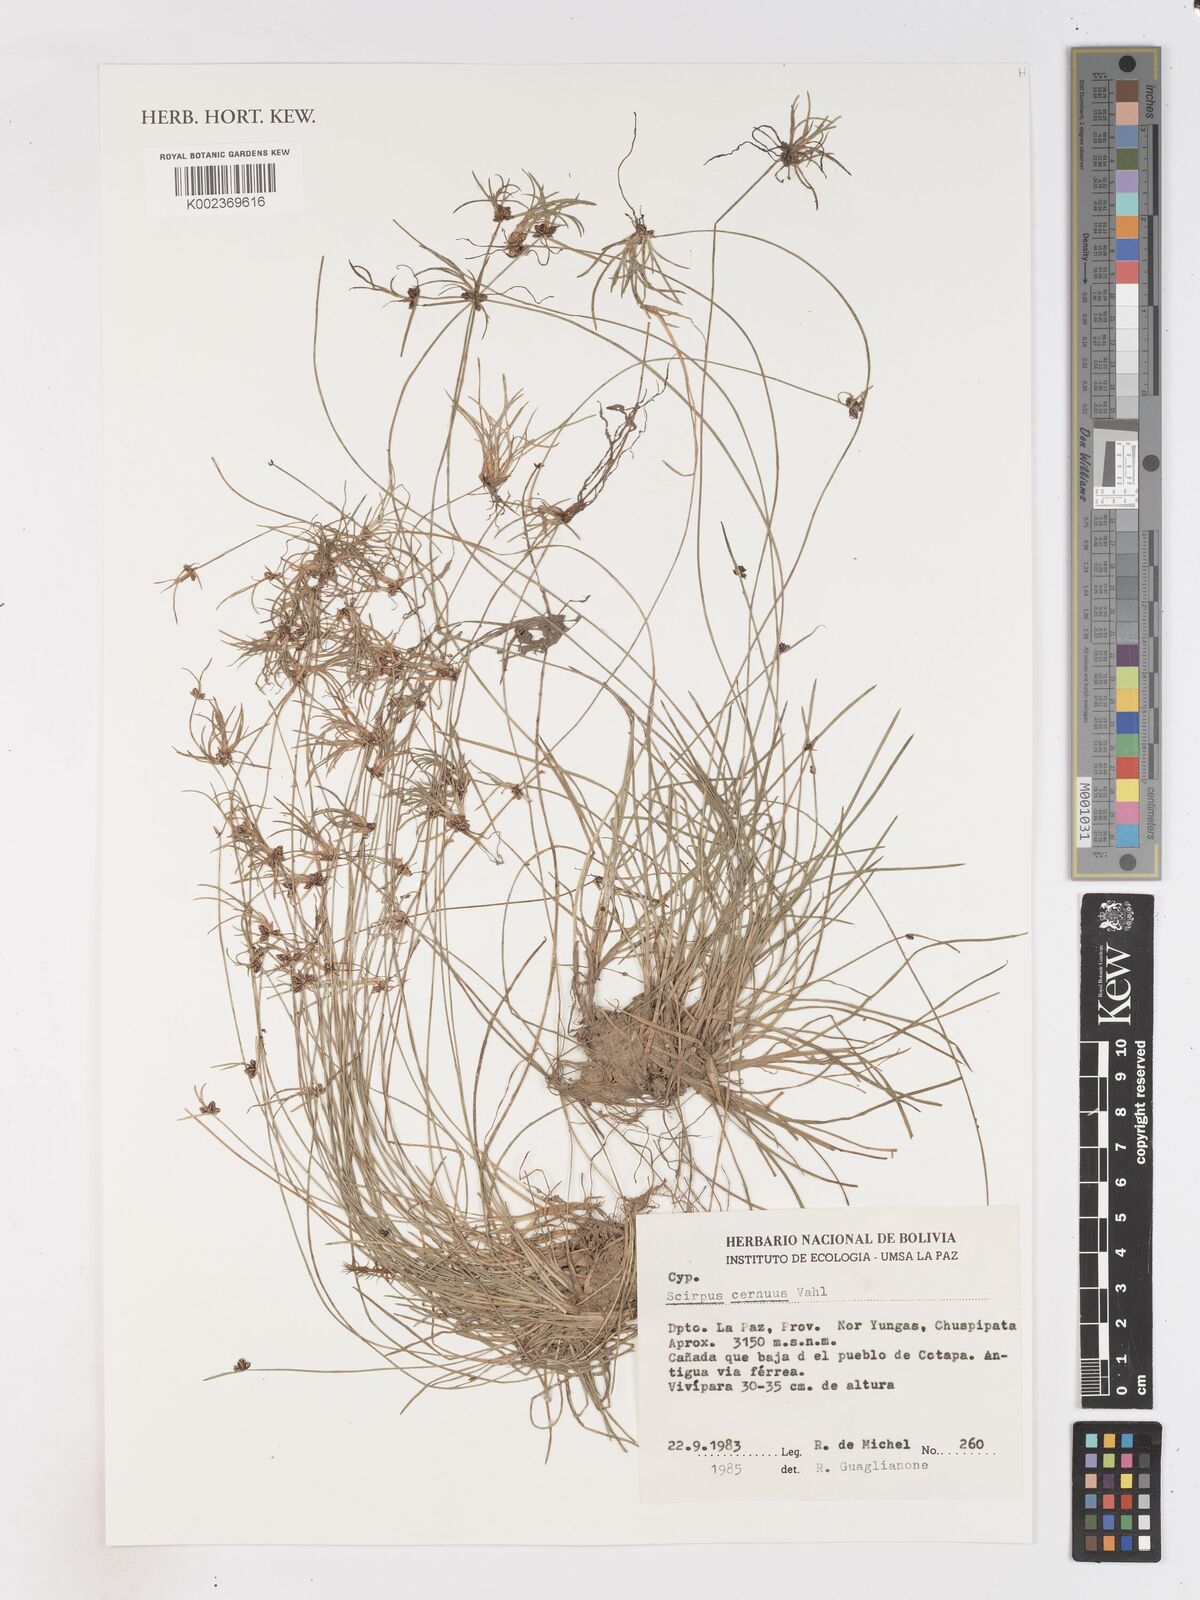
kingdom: Plantae
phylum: Tracheophyta
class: Liliopsida
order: Poales
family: Cyperaceae
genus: Isolepis
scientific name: Isolepis cernua
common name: Slender club-rush
